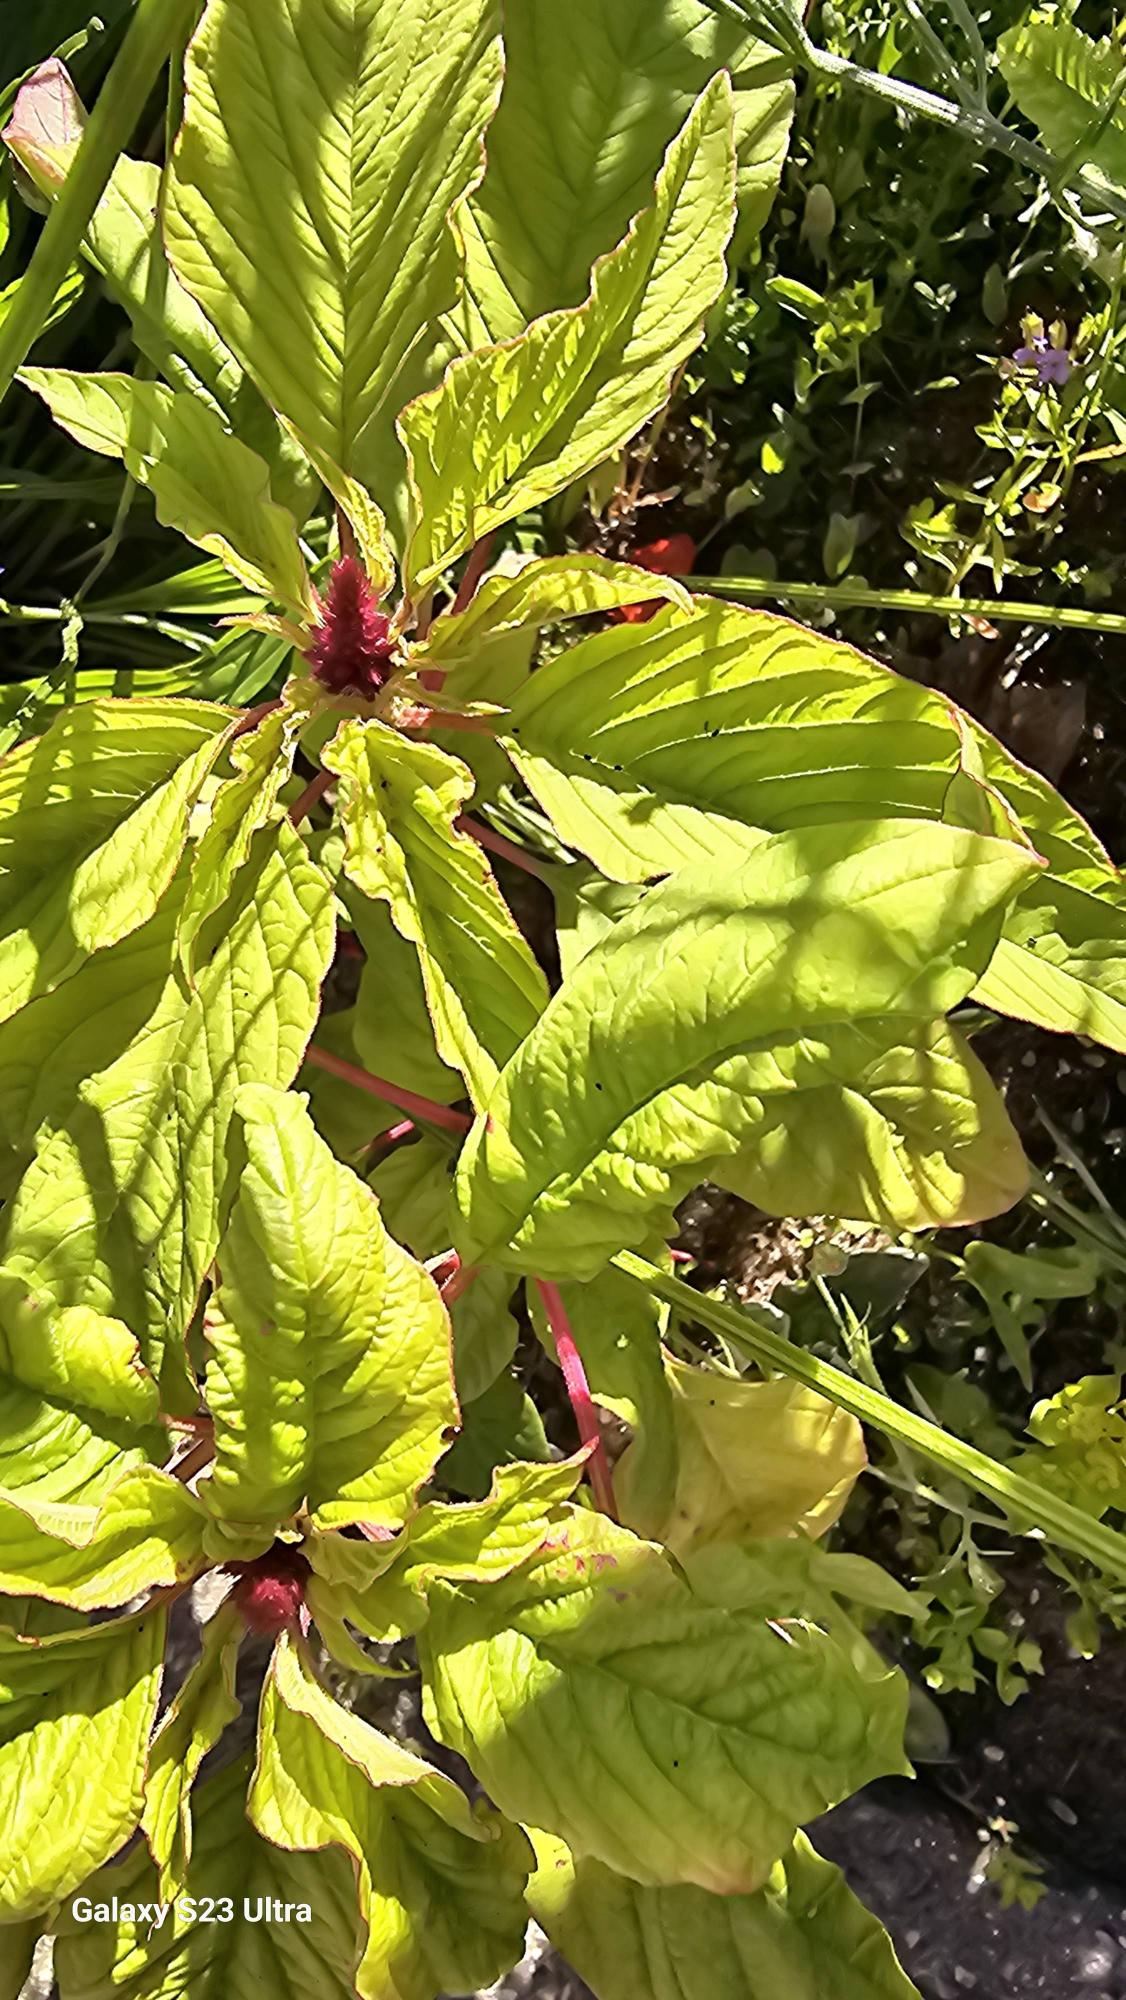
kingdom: Plantae
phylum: Tracheophyta
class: Magnoliopsida
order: Caryophyllales
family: Amaranthaceae
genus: Amaranthus
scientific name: Amaranthus
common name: Amarantslægten
